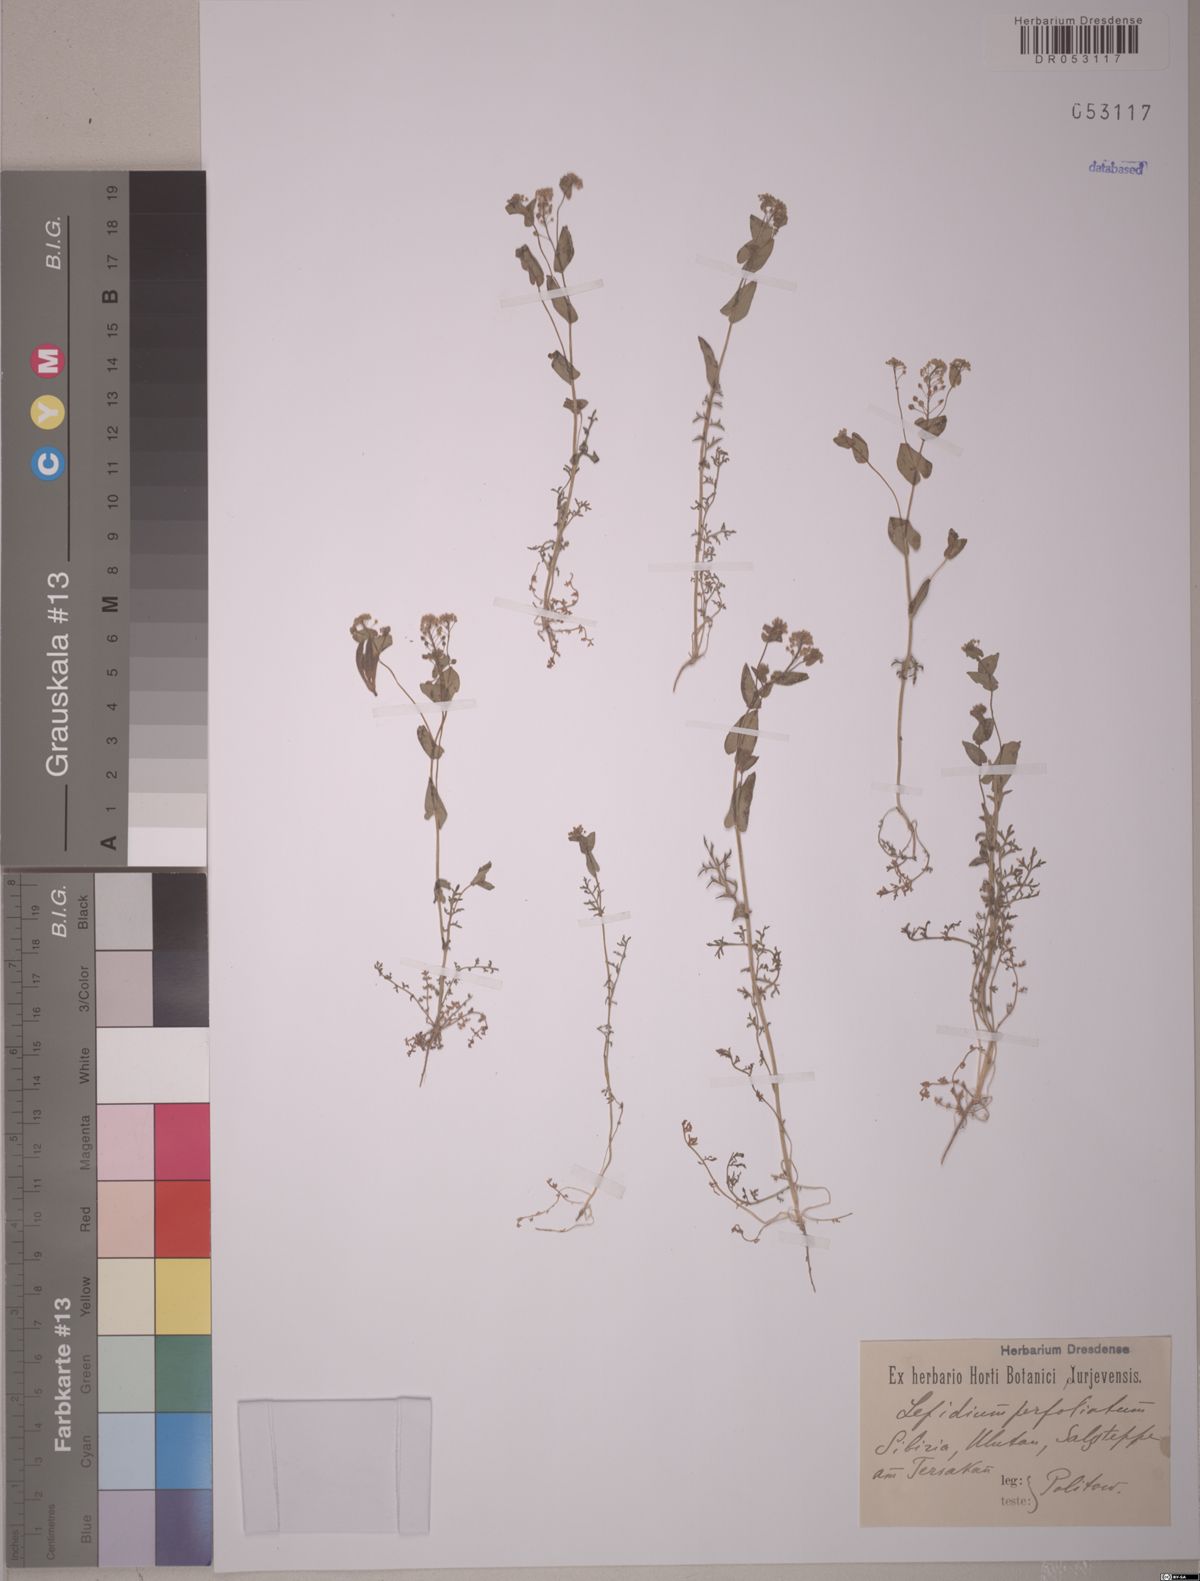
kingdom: Plantae
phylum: Tracheophyta
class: Magnoliopsida
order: Brassicales
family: Brassicaceae
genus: Lepidium
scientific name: Lepidium perfoliatum
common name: Perfoliate pepperwort
